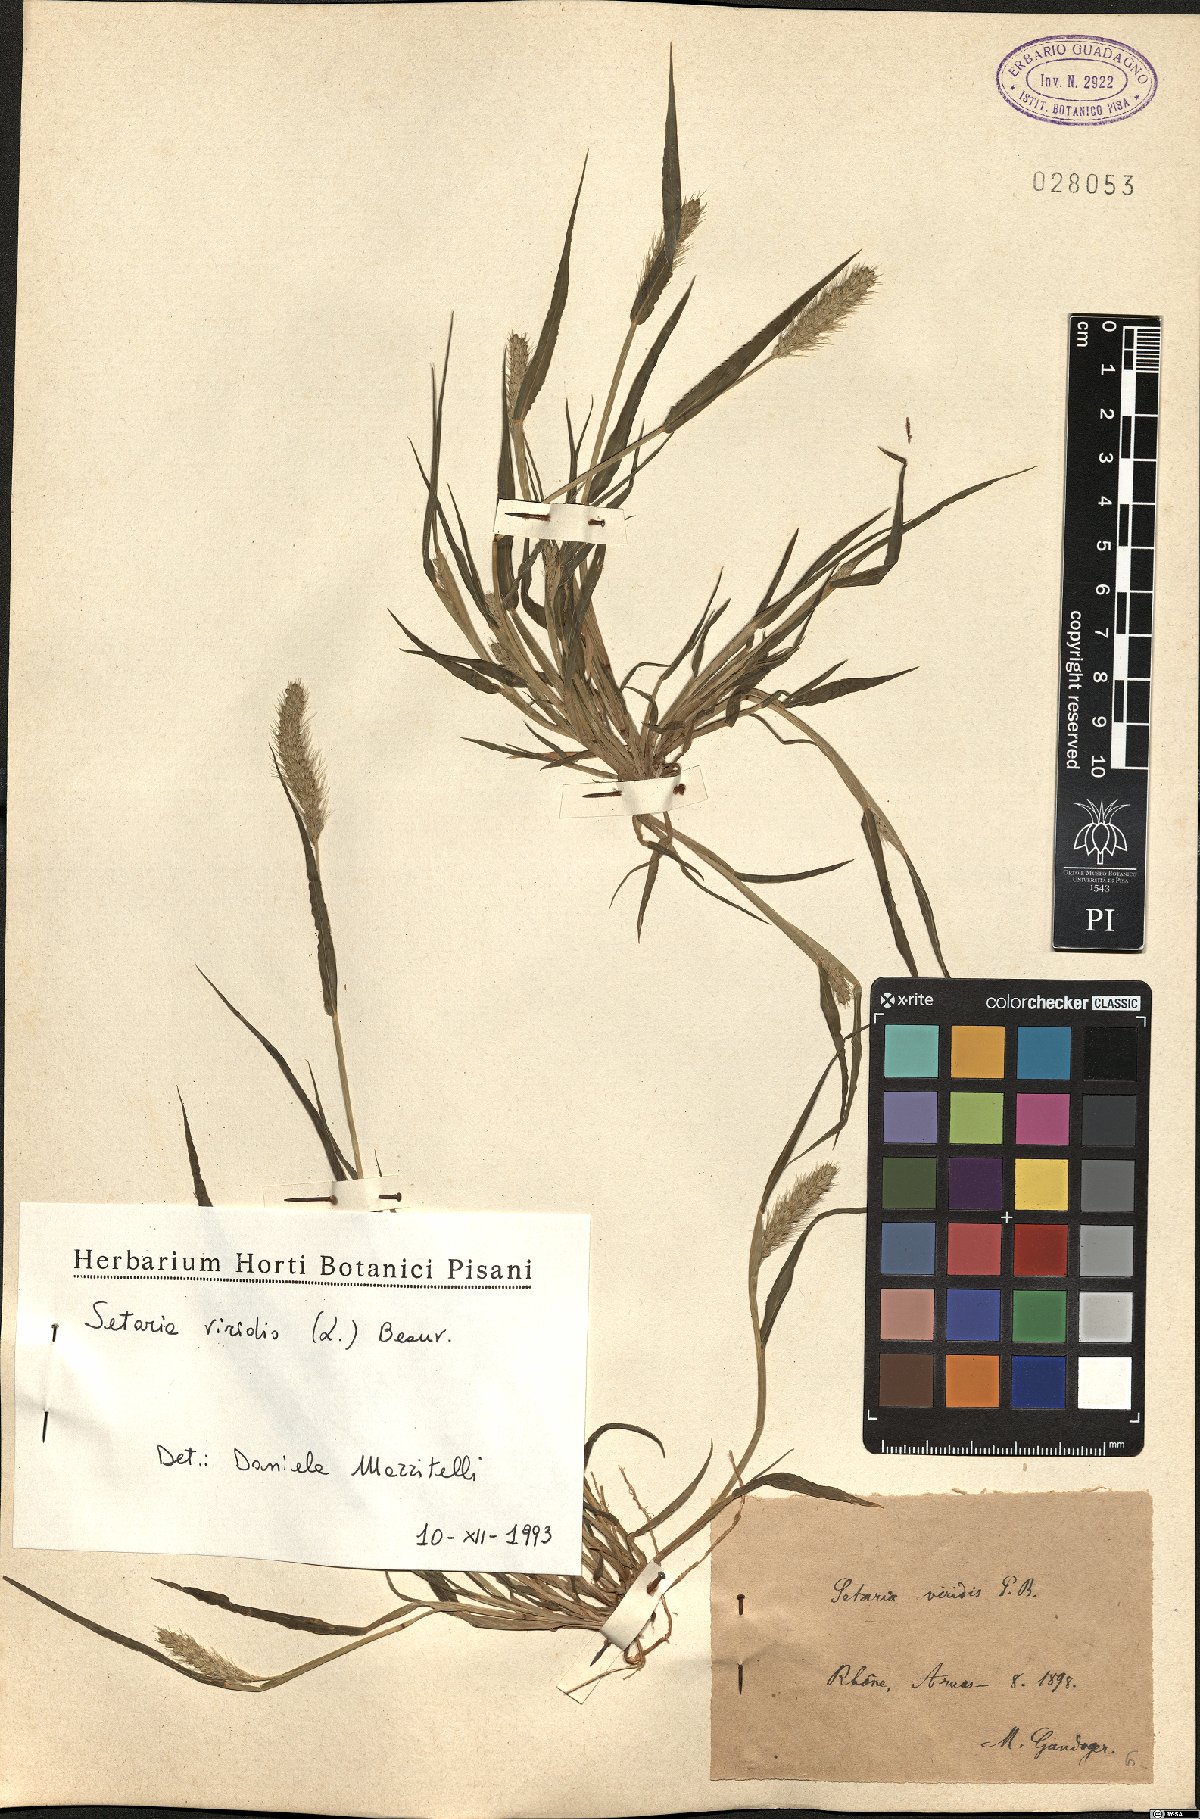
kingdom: Plantae
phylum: Tracheophyta
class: Liliopsida
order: Poales
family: Poaceae
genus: Setaria
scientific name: Setaria viridis
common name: Green bristlegrass
